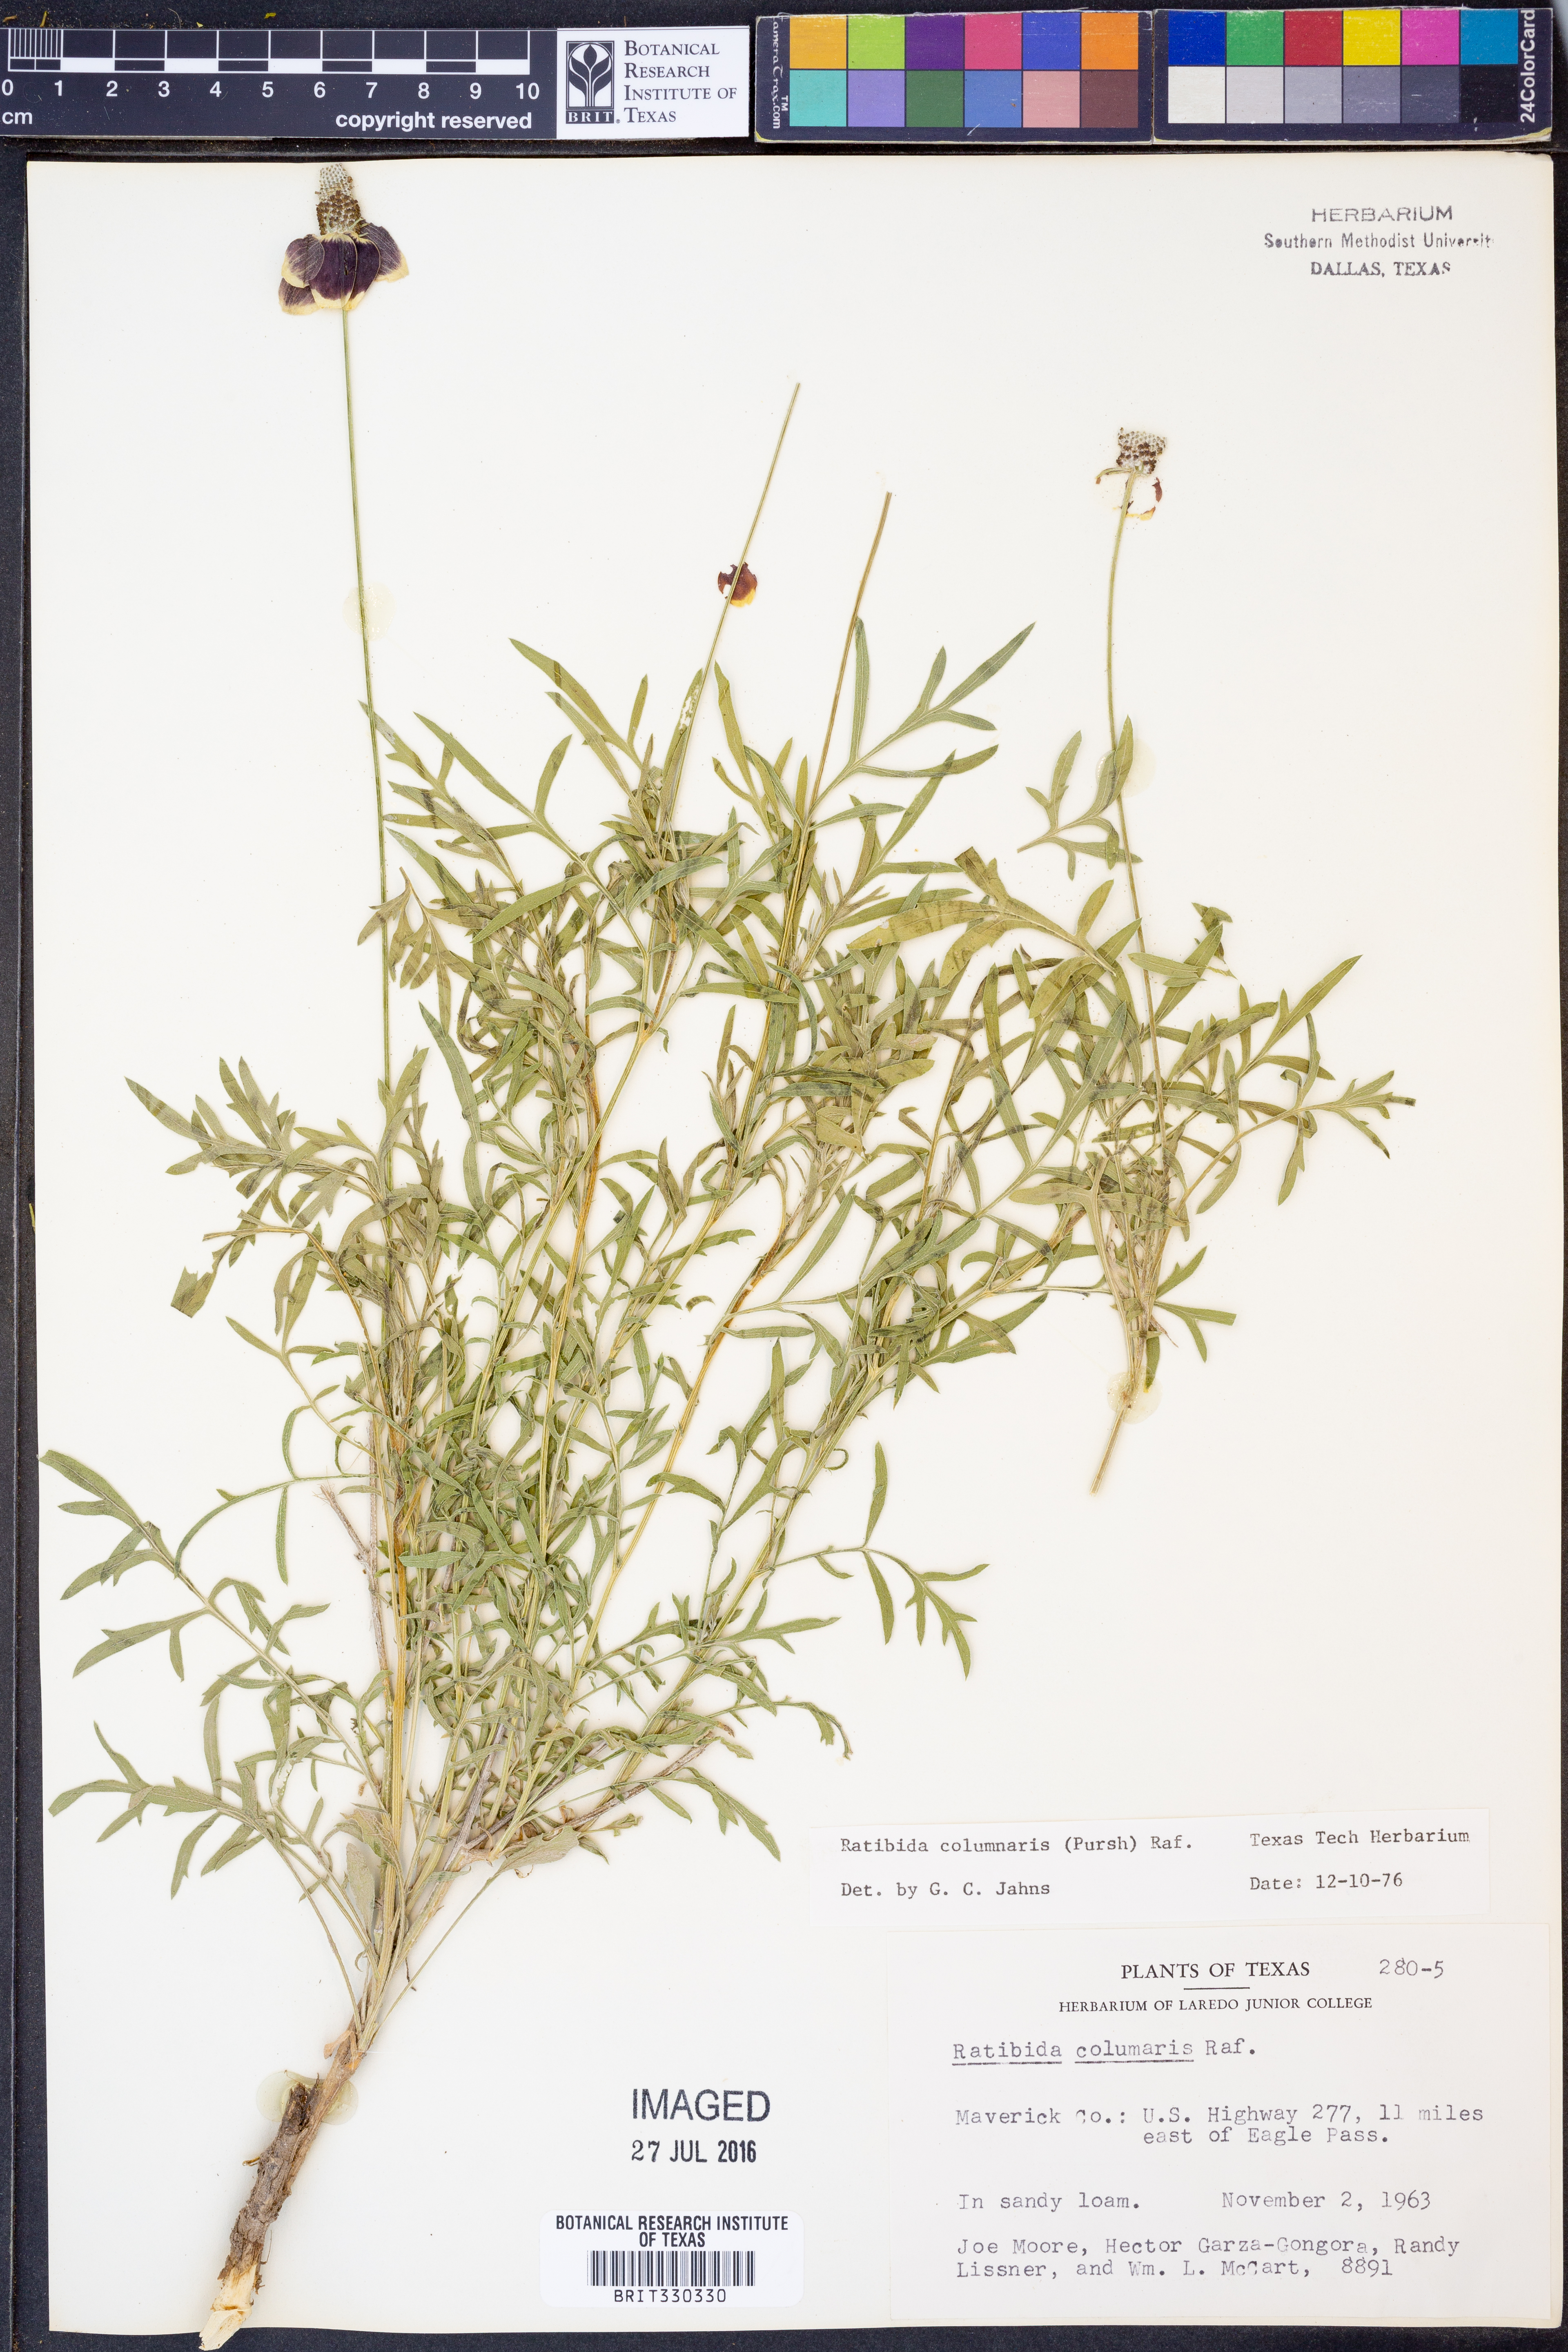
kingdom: Plantae
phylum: Tracheophyta
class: Magnoliopsida
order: Asterales
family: Asteraceae
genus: Ratibida
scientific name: Ratibida columnifera
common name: Prairie coneflower
